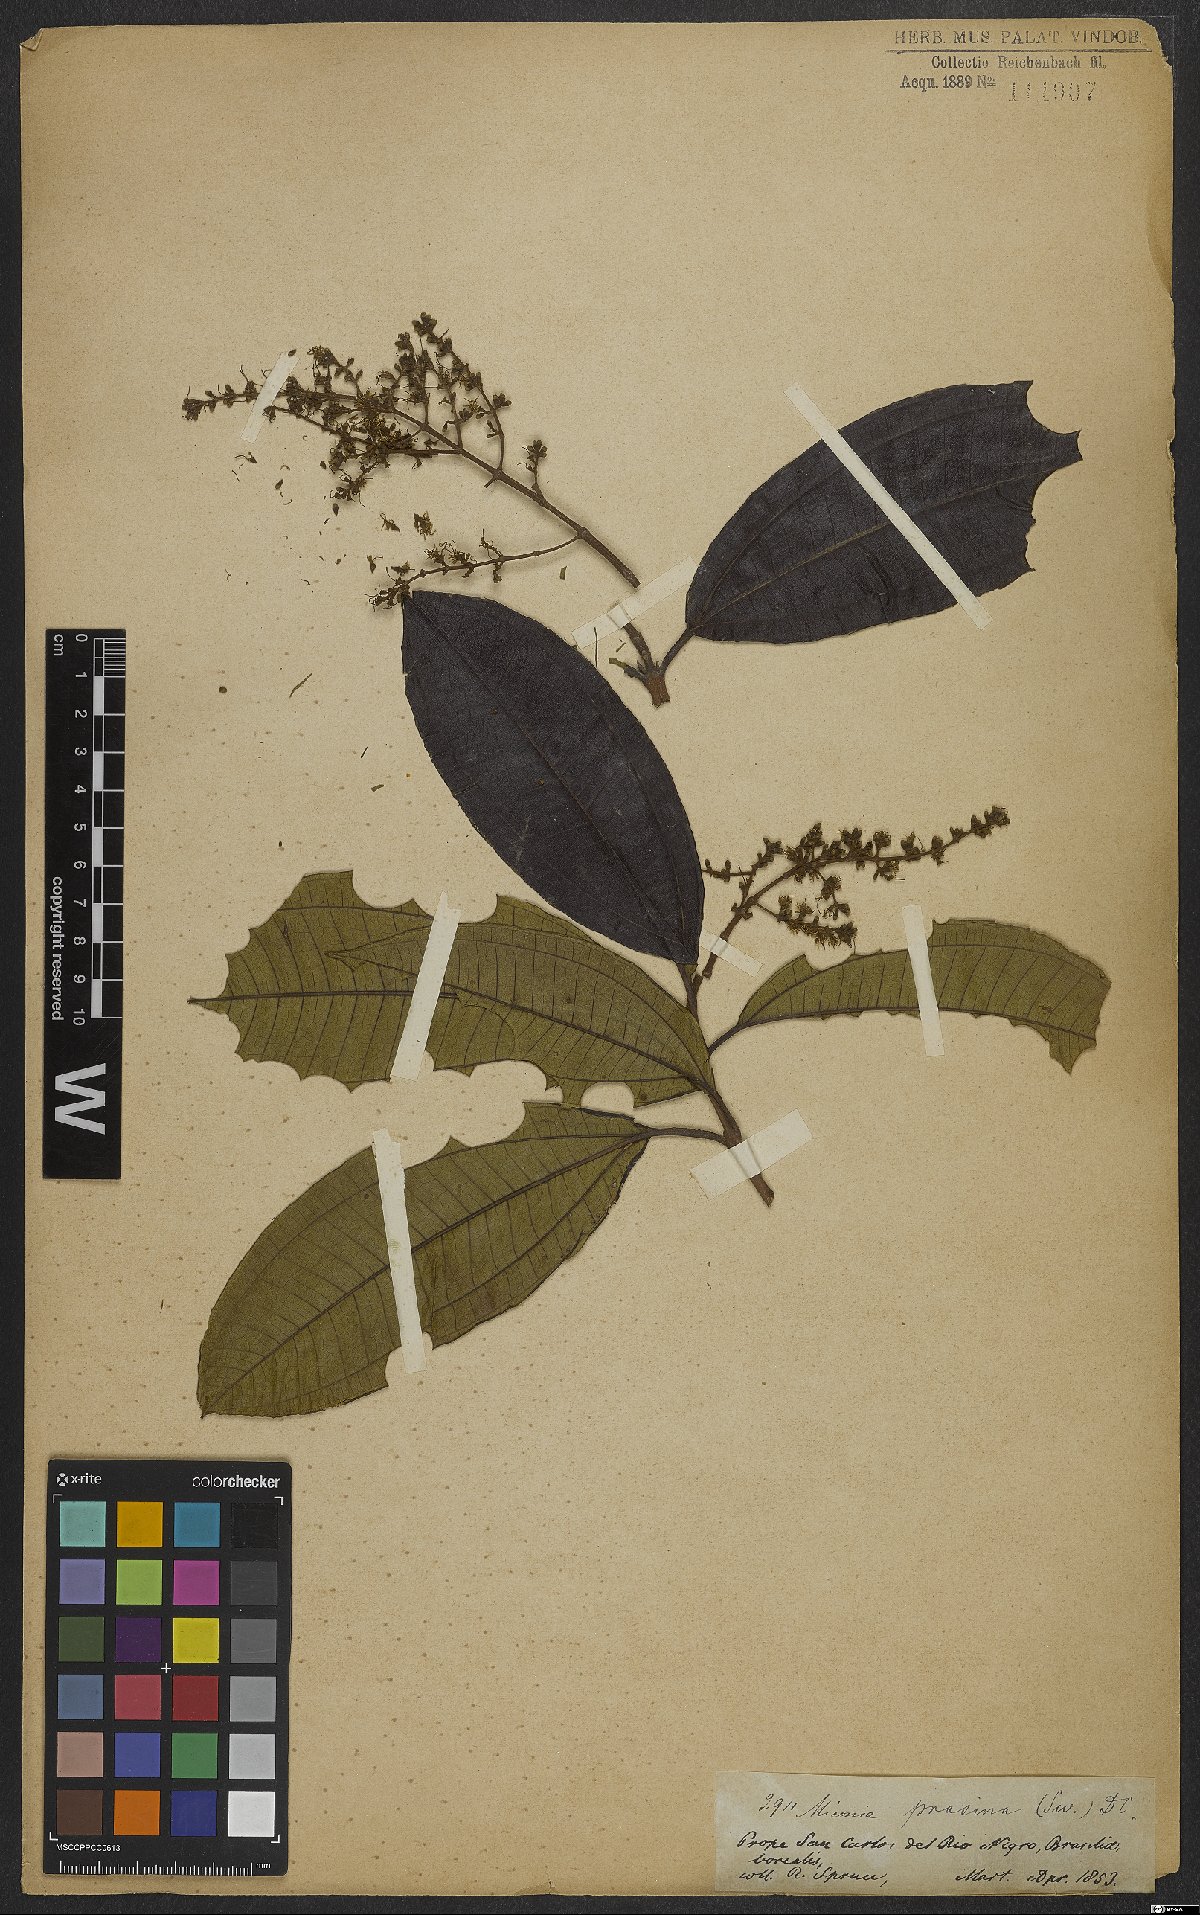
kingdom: Plantae
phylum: Tracheophyta
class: Magnoliopsida
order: Myrtales
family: Melastomataceae
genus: Miconia
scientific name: Miconia prasina
